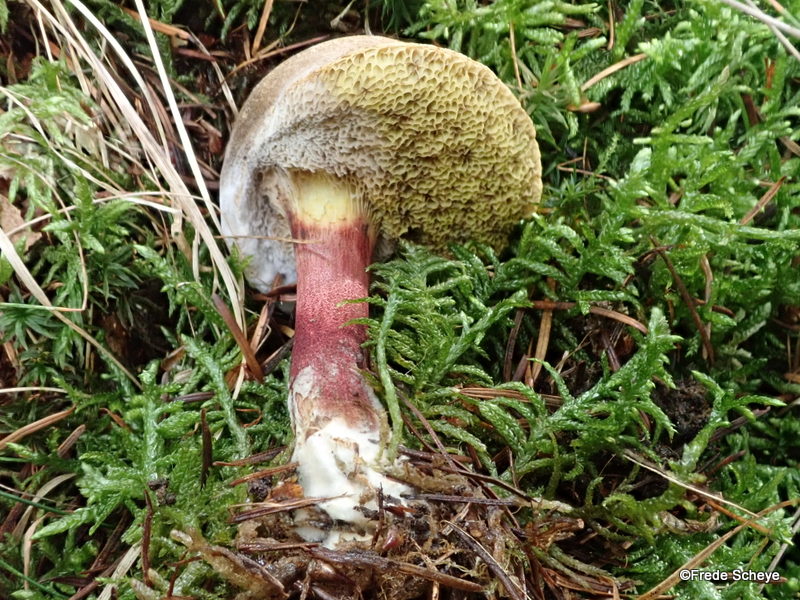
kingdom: Fungi
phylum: Basidiomycota
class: Agaricomycetes
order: Boletales
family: Boletaceae
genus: Xerocomellus
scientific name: Xerocomellus chrysenteron
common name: rødsprukken rørhat
